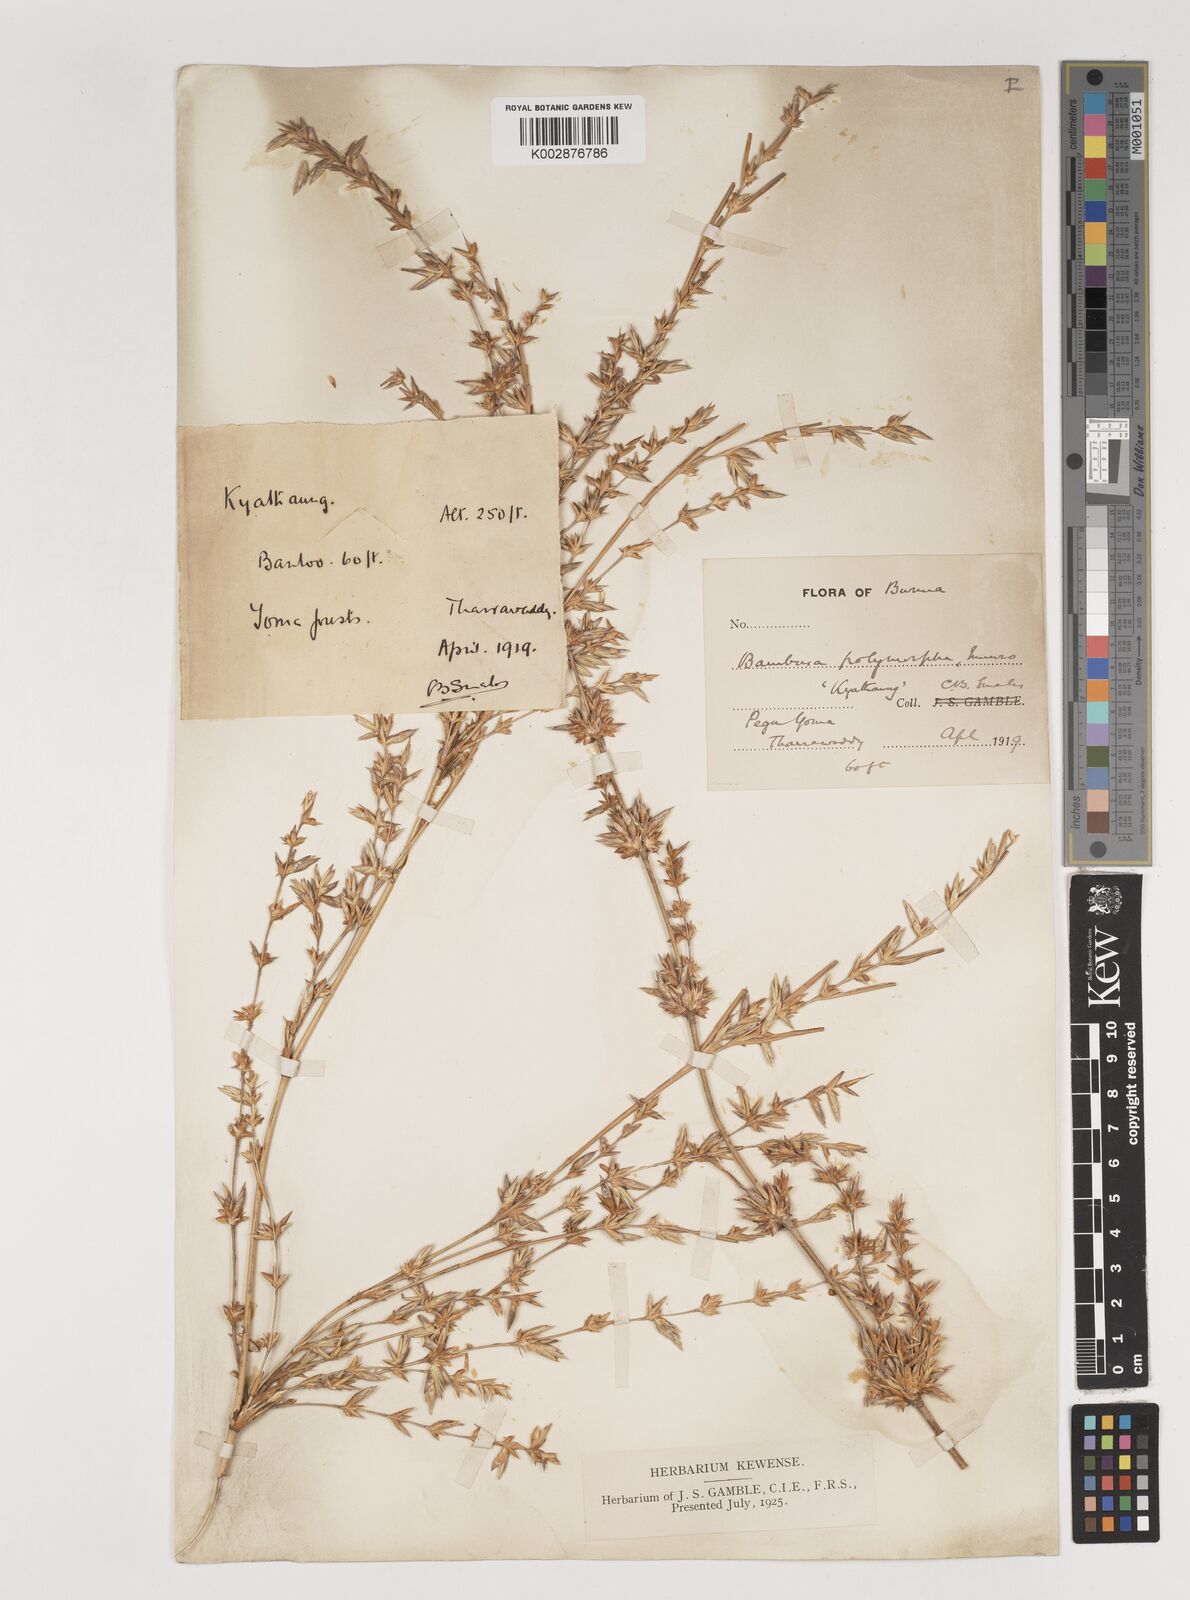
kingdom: Plantae
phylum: Tracheophyta
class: Liliopsida
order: Poales
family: Poaceae
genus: Bambusa
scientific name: Bambusa polymorpha
